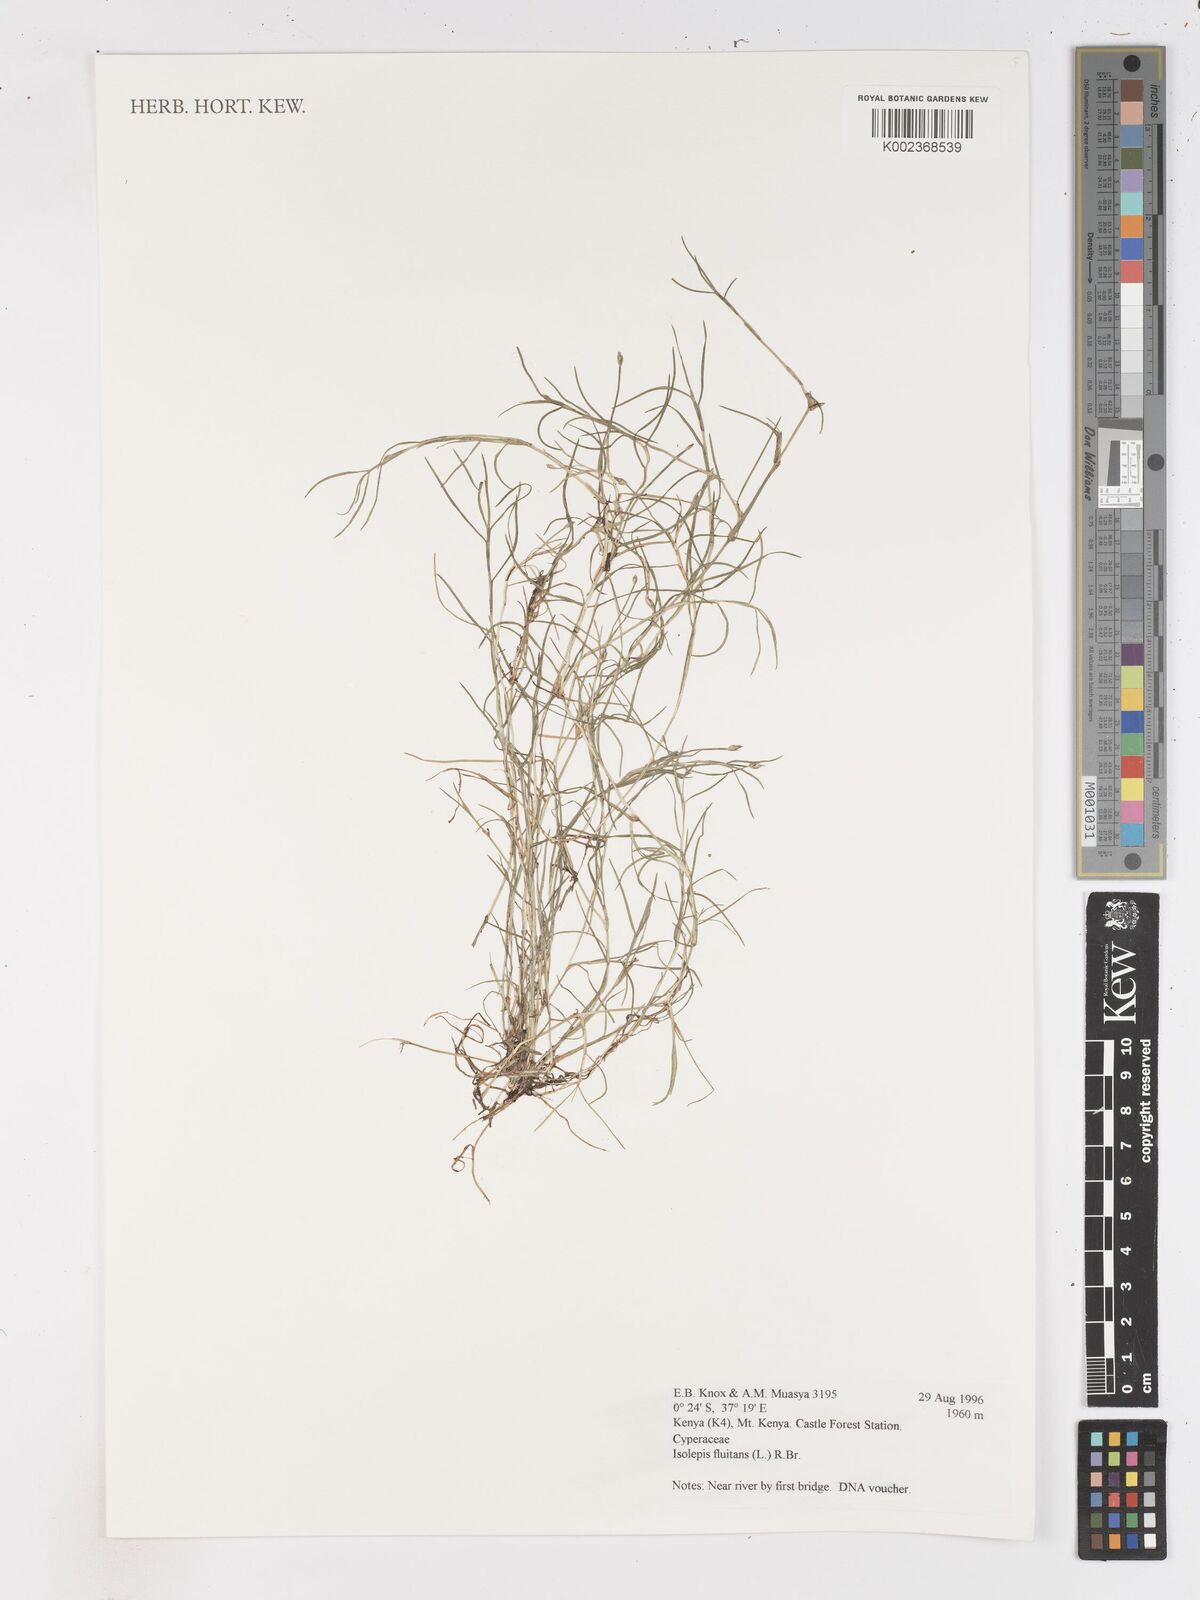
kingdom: Plantae
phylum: Tracheophyta
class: Liliopsida
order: Poales
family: Cyperaceae
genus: Isolepis
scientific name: Isolepis fluitans
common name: Floating club-rush
